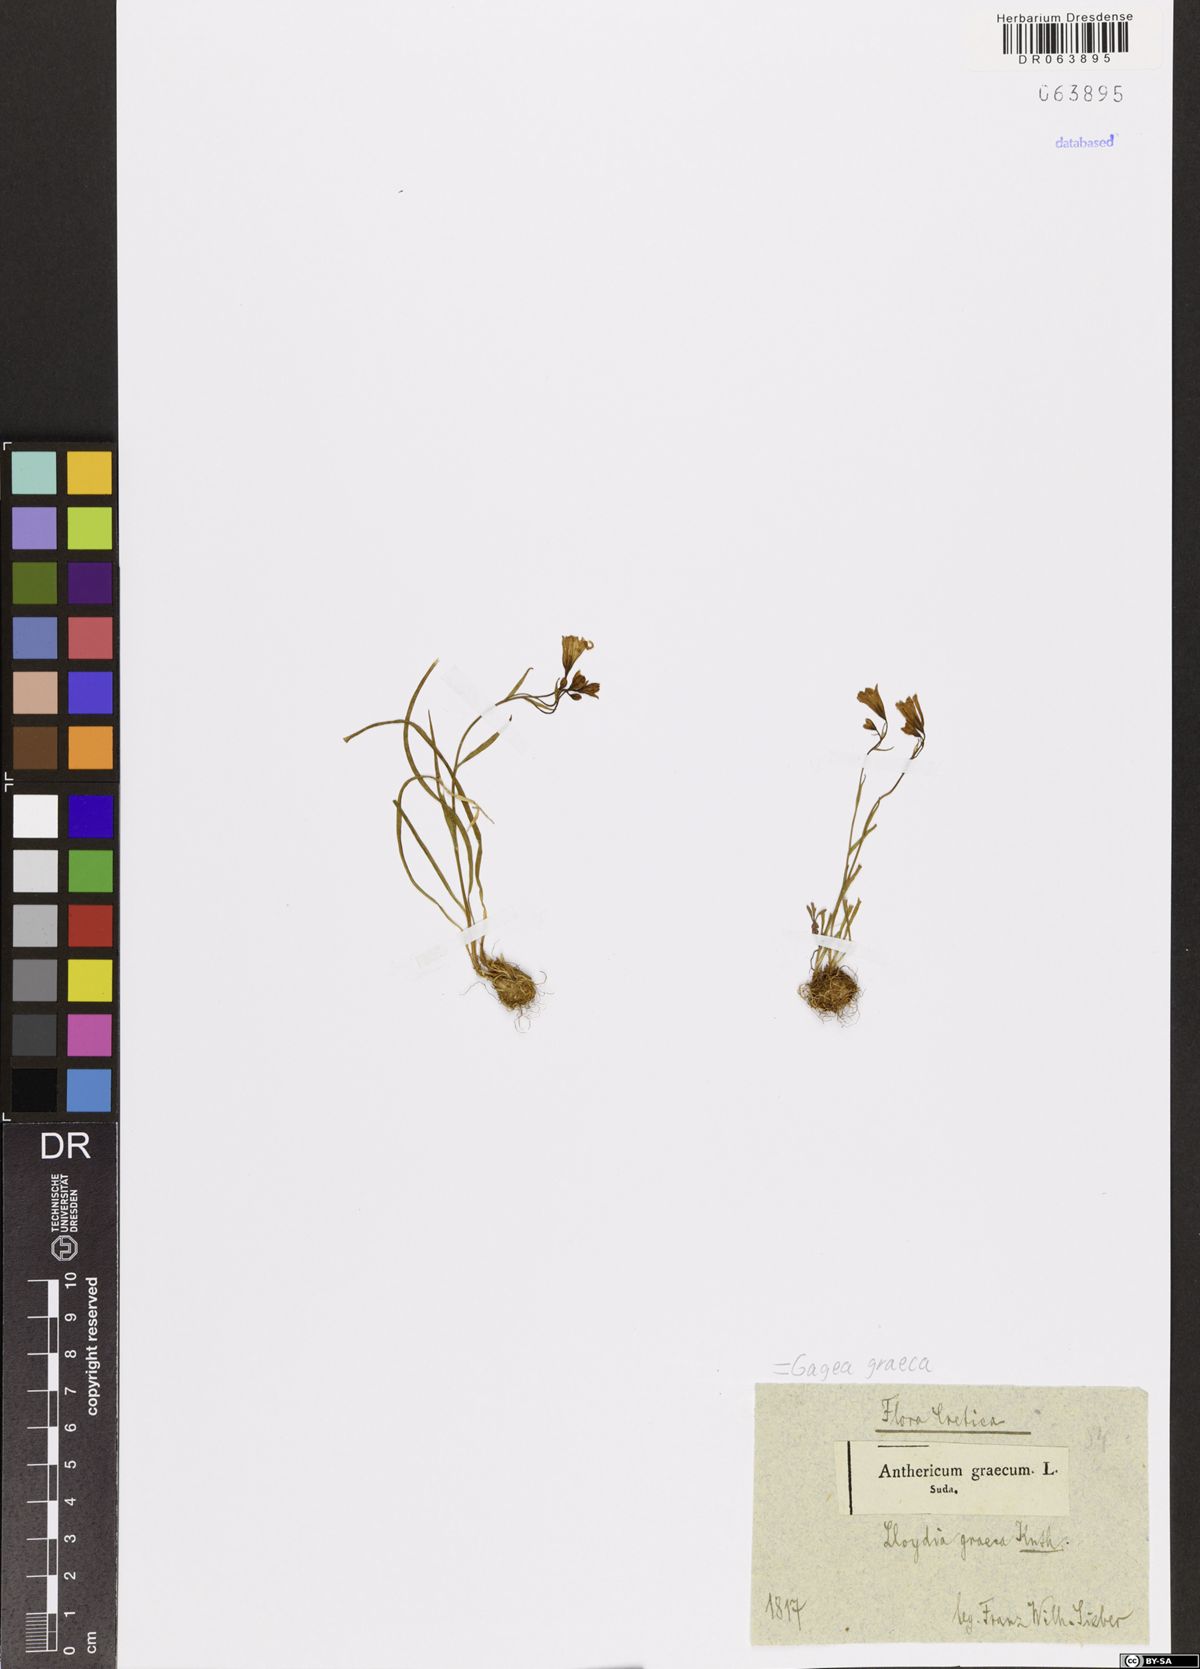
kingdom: Plantae
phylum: Tracheophyta
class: Liliopsida
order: Liliales
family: Liliaceae
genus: Gagea
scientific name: Gagea graeca
